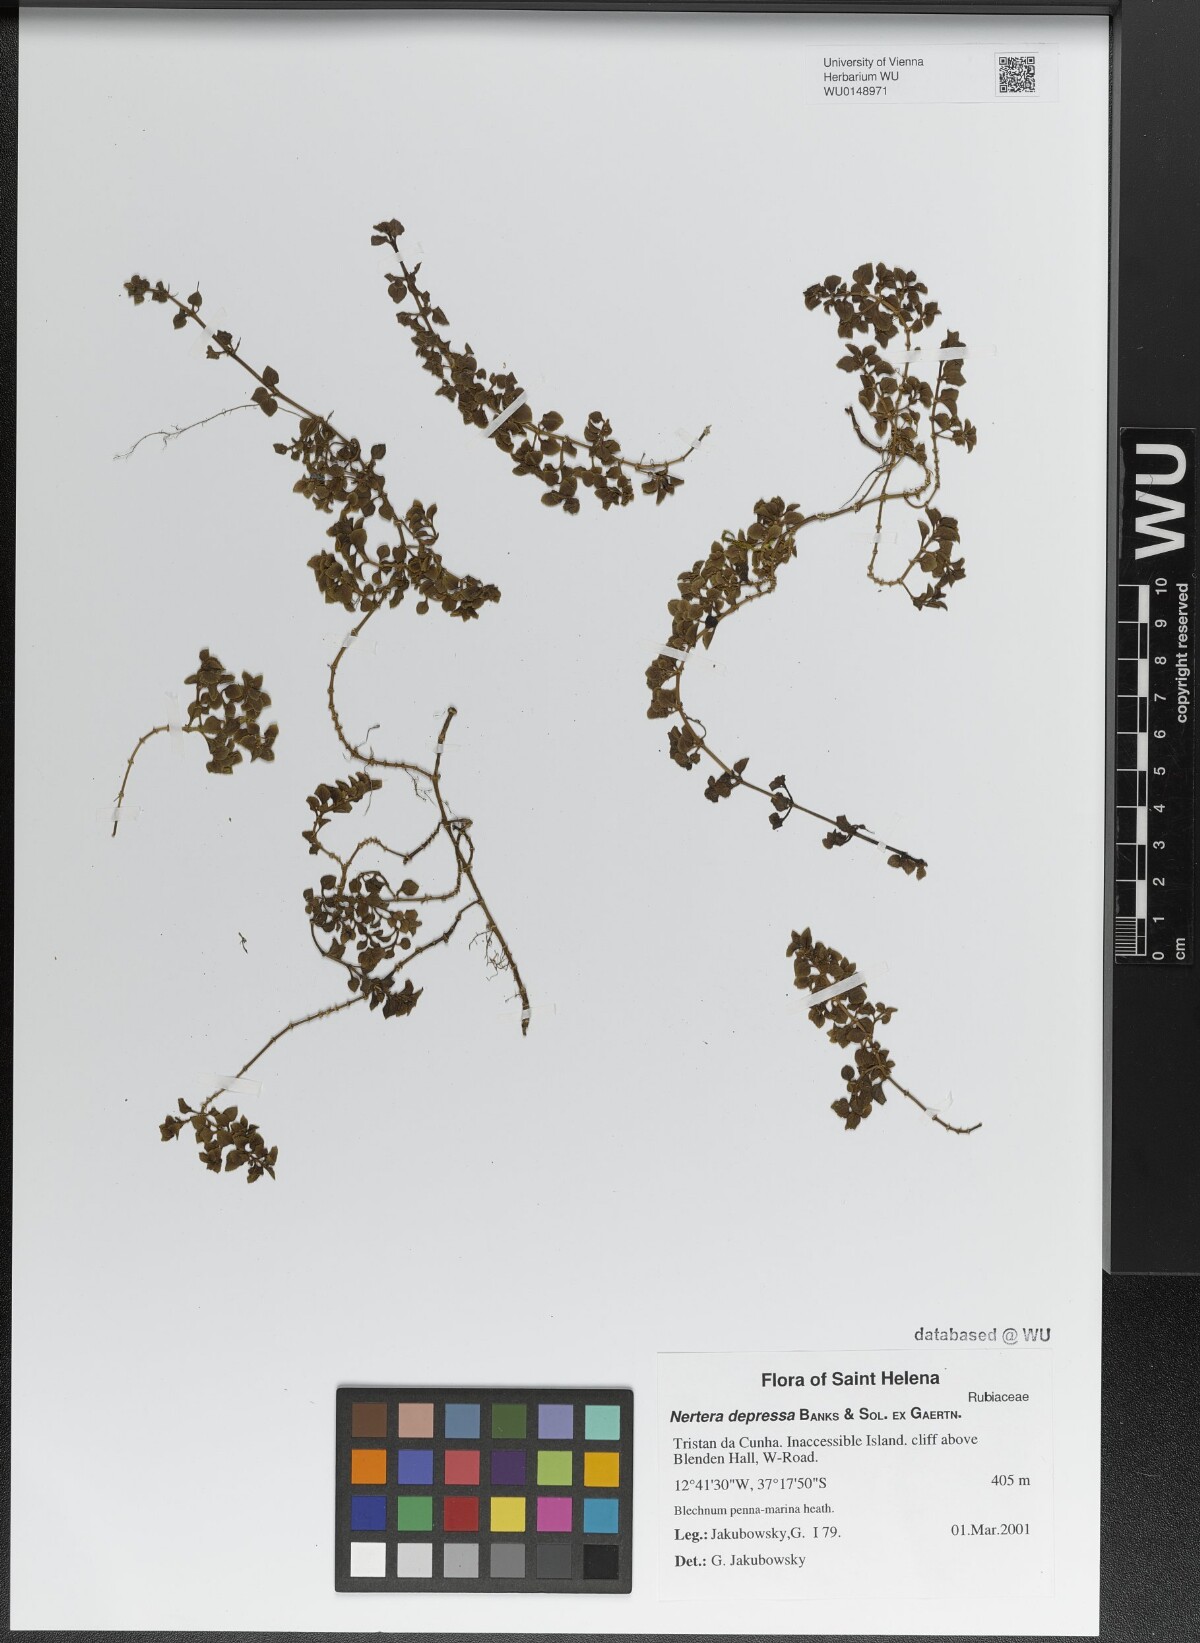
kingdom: Plantae
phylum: Tracheophyta
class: Magnoliopsida
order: Gentianales
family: Rubiaceae
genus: Nertera
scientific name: Nertera granadensis
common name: Beadplant
